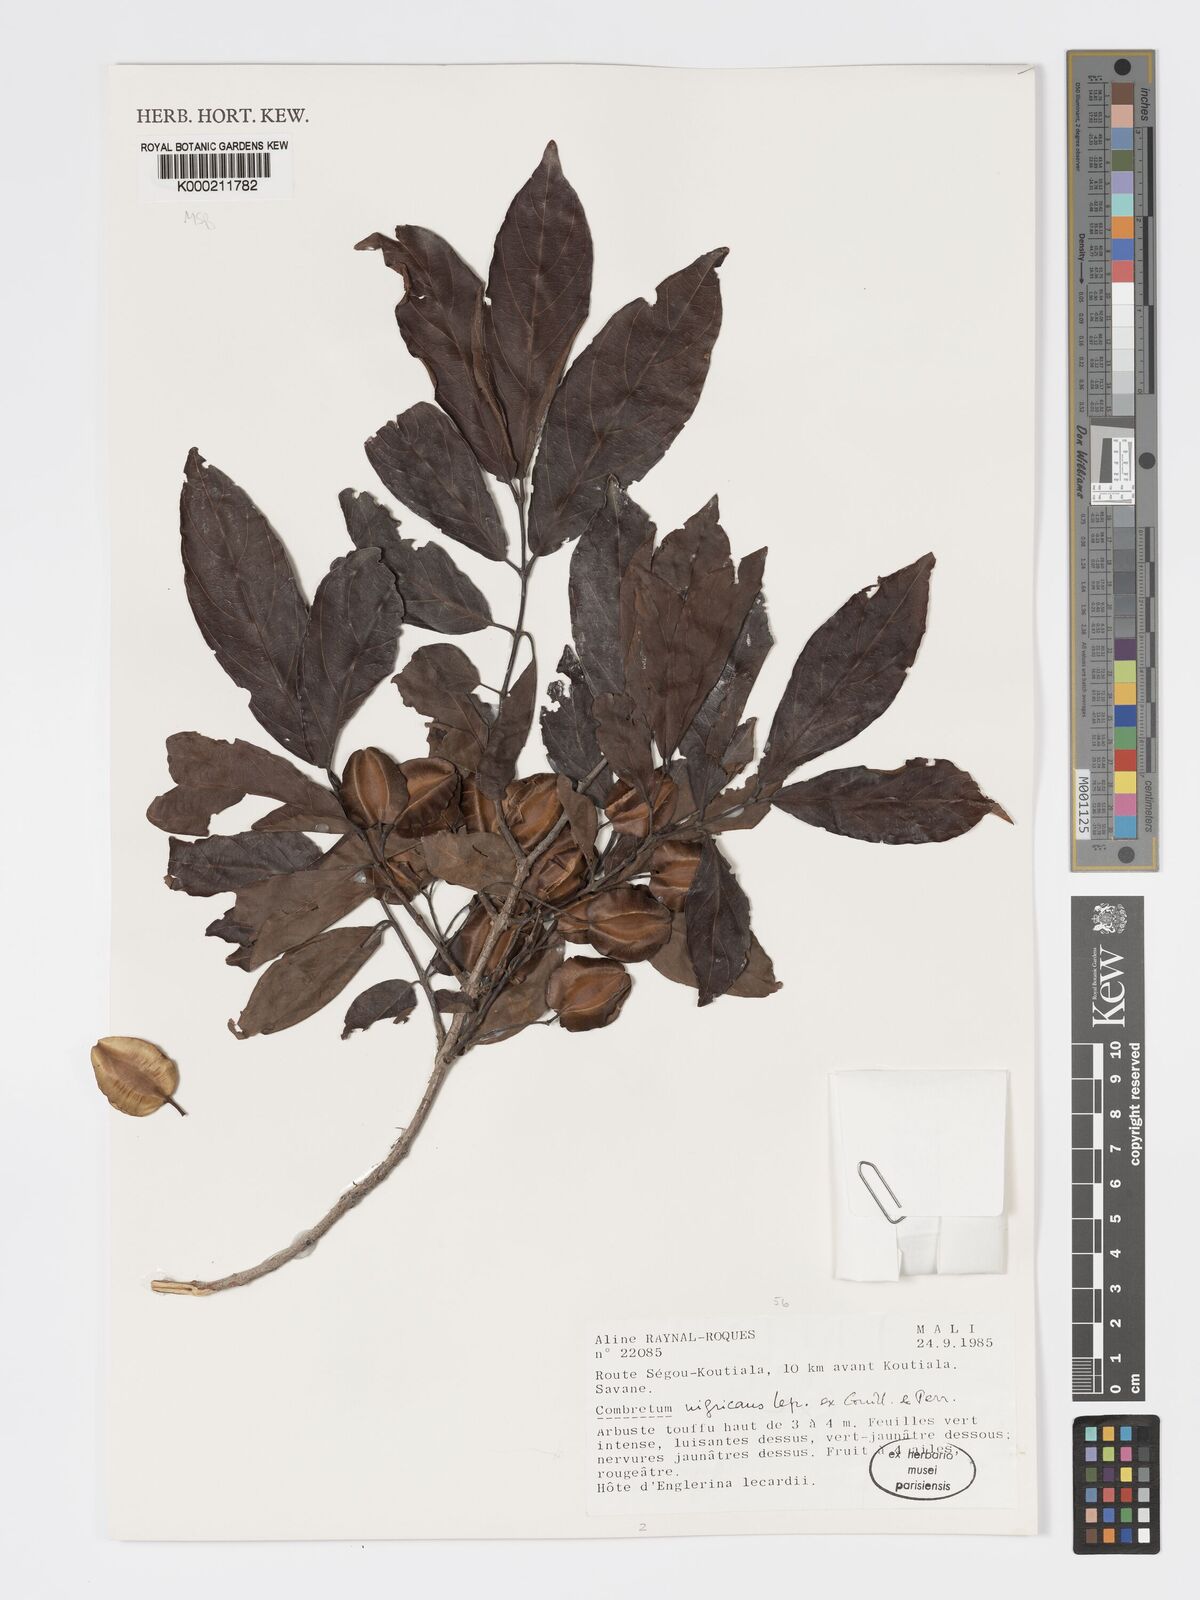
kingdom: Plantae
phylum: Tracheophyta
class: Magnoliopsida
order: Myrtales
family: Combretaceae
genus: Combretum
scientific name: Combretum nigricans
